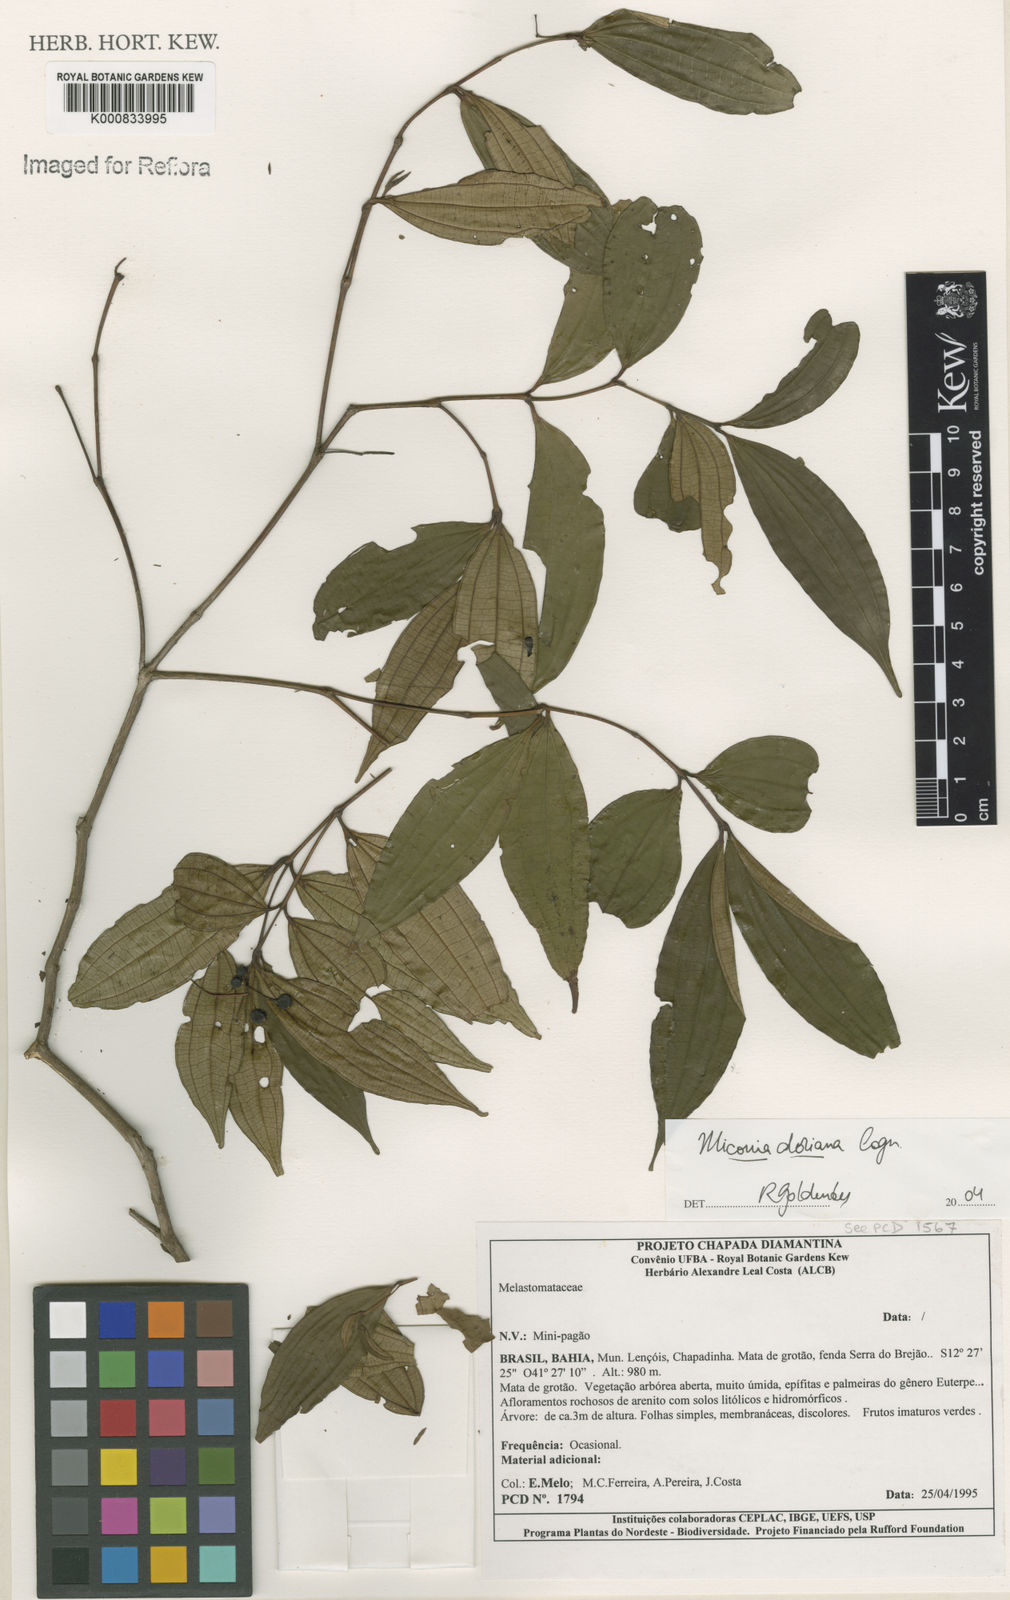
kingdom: Plantae
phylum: Tracheophyta
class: Magnoliopsida
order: Myrtales
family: Melastomataceae
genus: Miconia
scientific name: Miconia doriana
